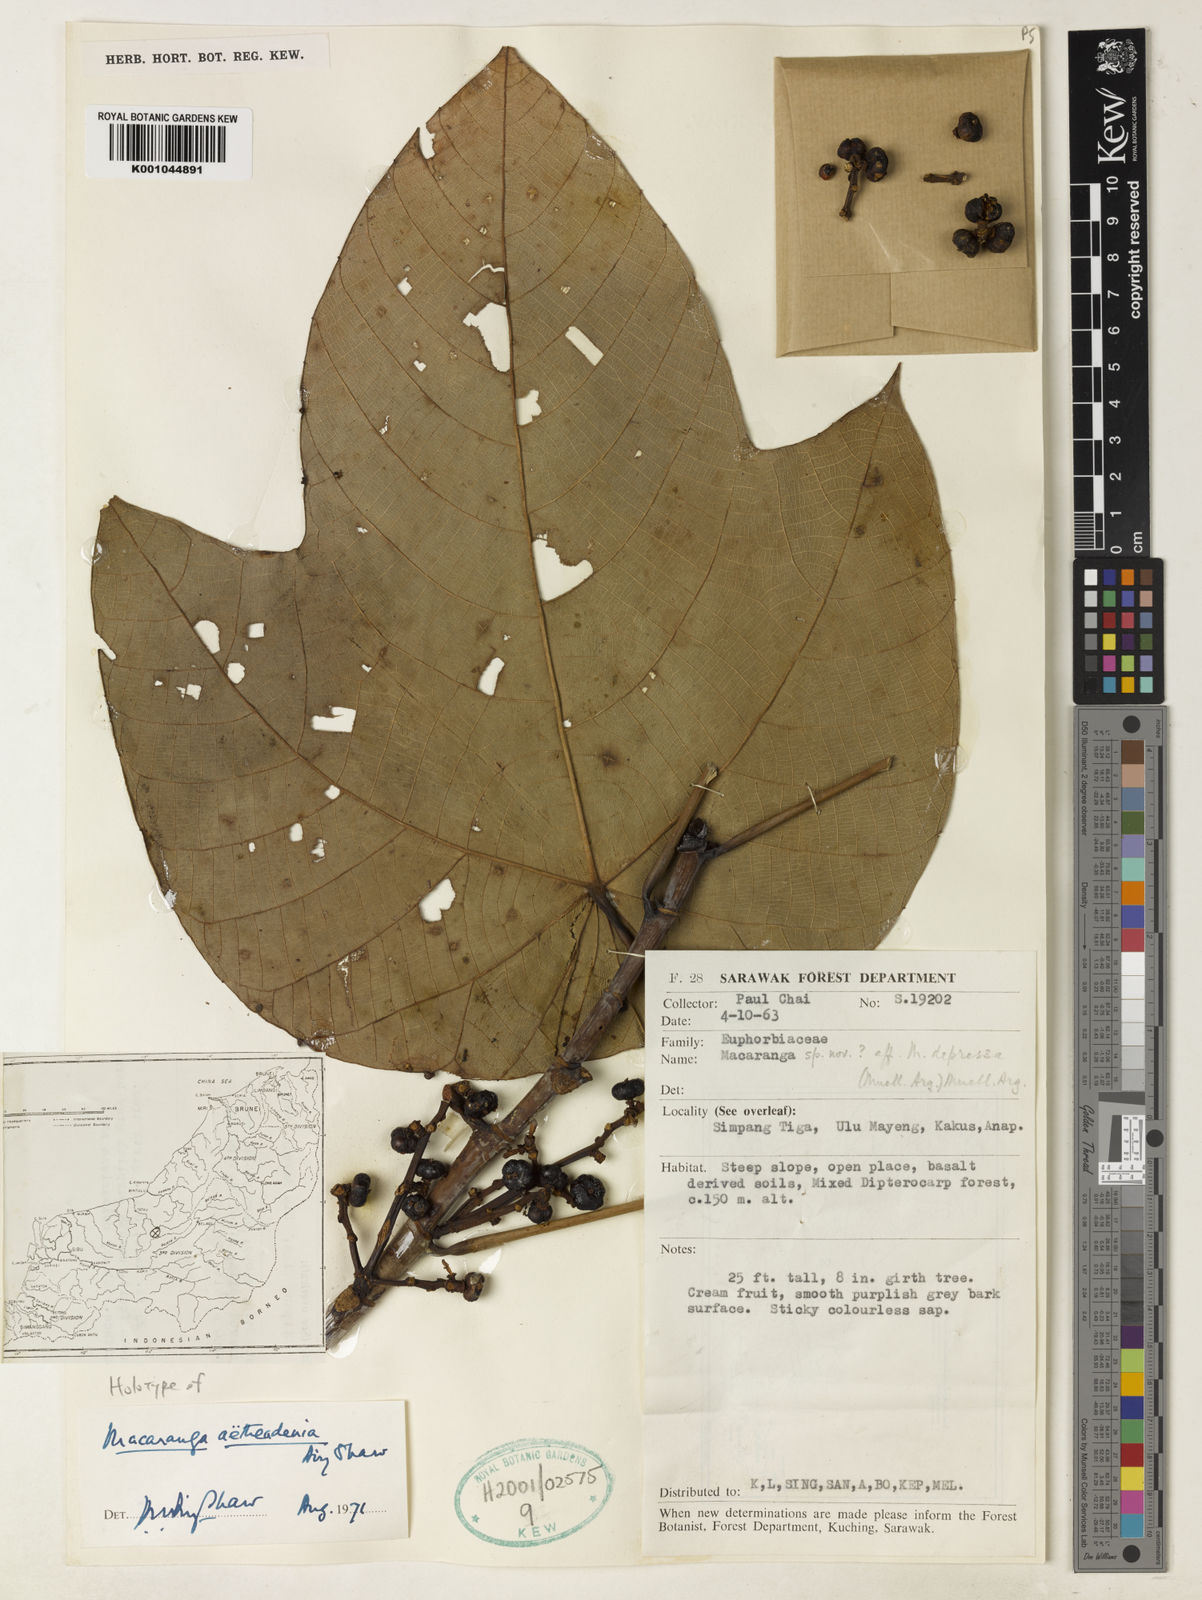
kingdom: Plantae
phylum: Tracheophyta
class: Magnoliopsida
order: Malpighiales
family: Euphorbiaceae
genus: Macaranga
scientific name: Macaranga aetheadenia
